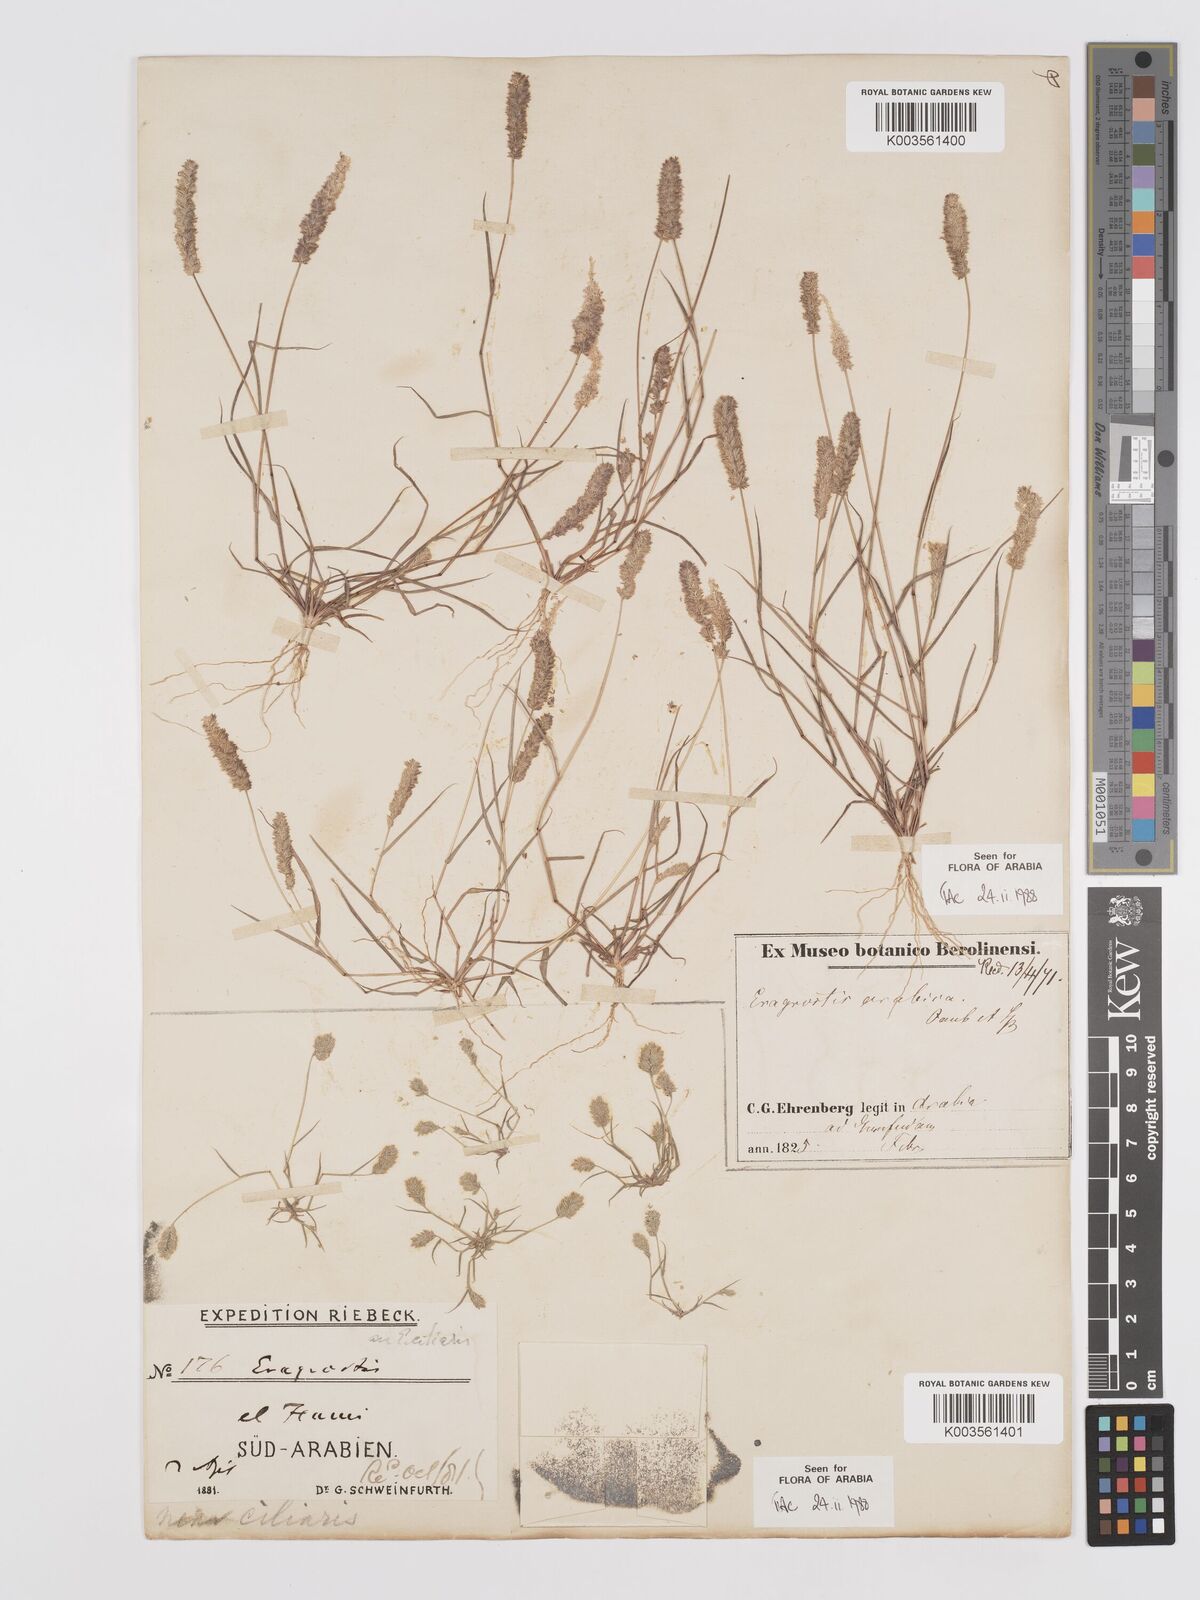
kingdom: Plantae
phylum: Tracheophyta
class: Liliopsida
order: Poales
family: Poaceae
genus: Eragrostis
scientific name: Eragrostis ciliaris
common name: Gophertail lovegrass
